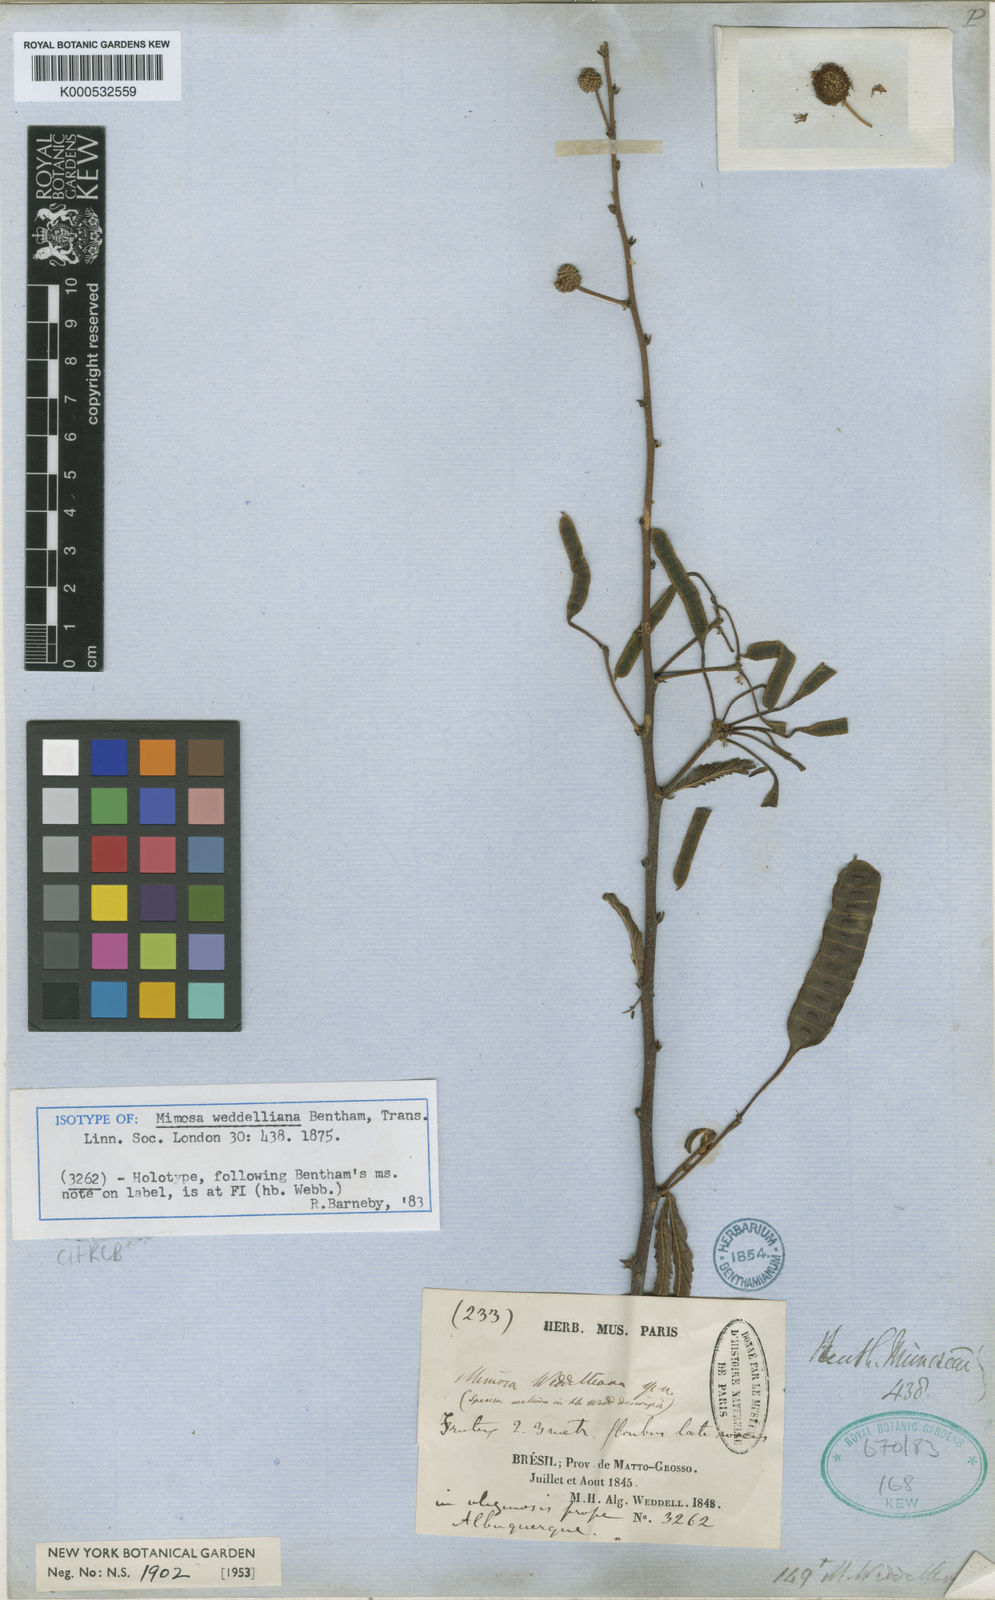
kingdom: Plantae
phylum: Tracheophyta
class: Magnoliopsida
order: Fabales
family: Fabaceae
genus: Mimosa
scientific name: Mimosa weddelliana
